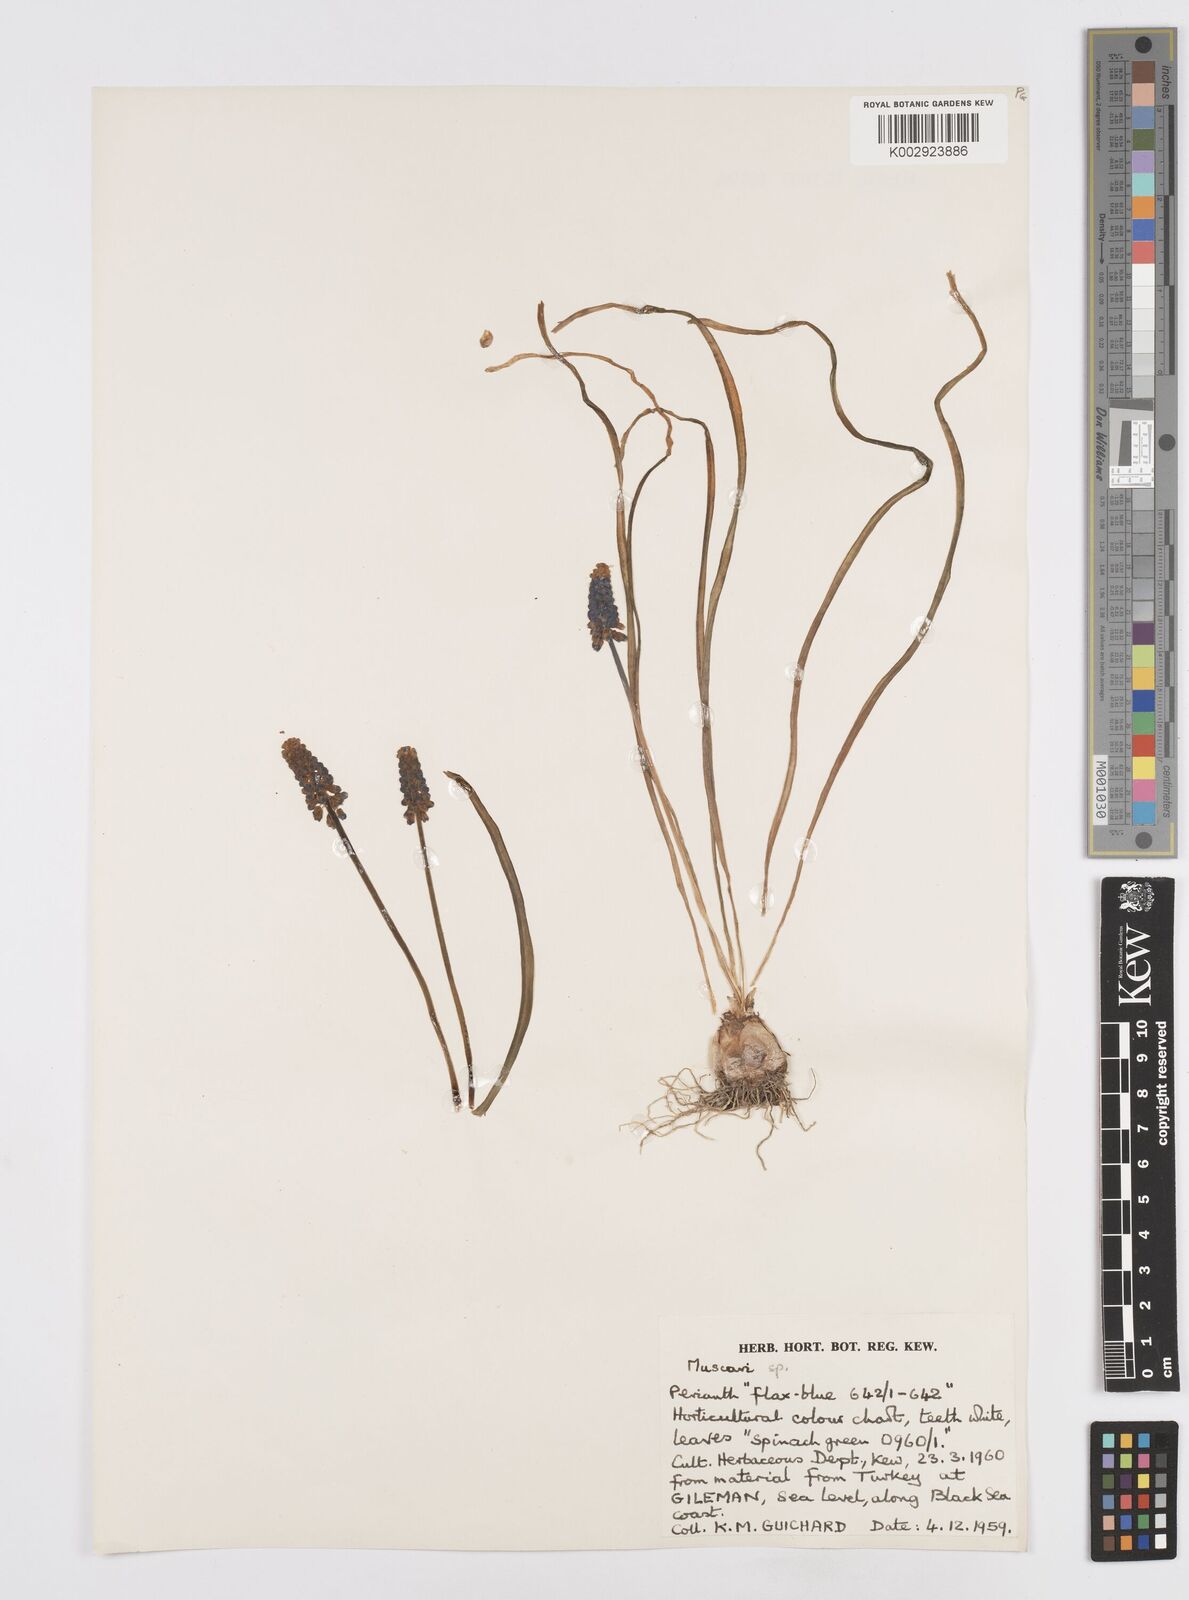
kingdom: Plantae
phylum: Tracheophyta
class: Liliopsida
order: Asparagales
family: Asparagaceae
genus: Muscari
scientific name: Muscari
